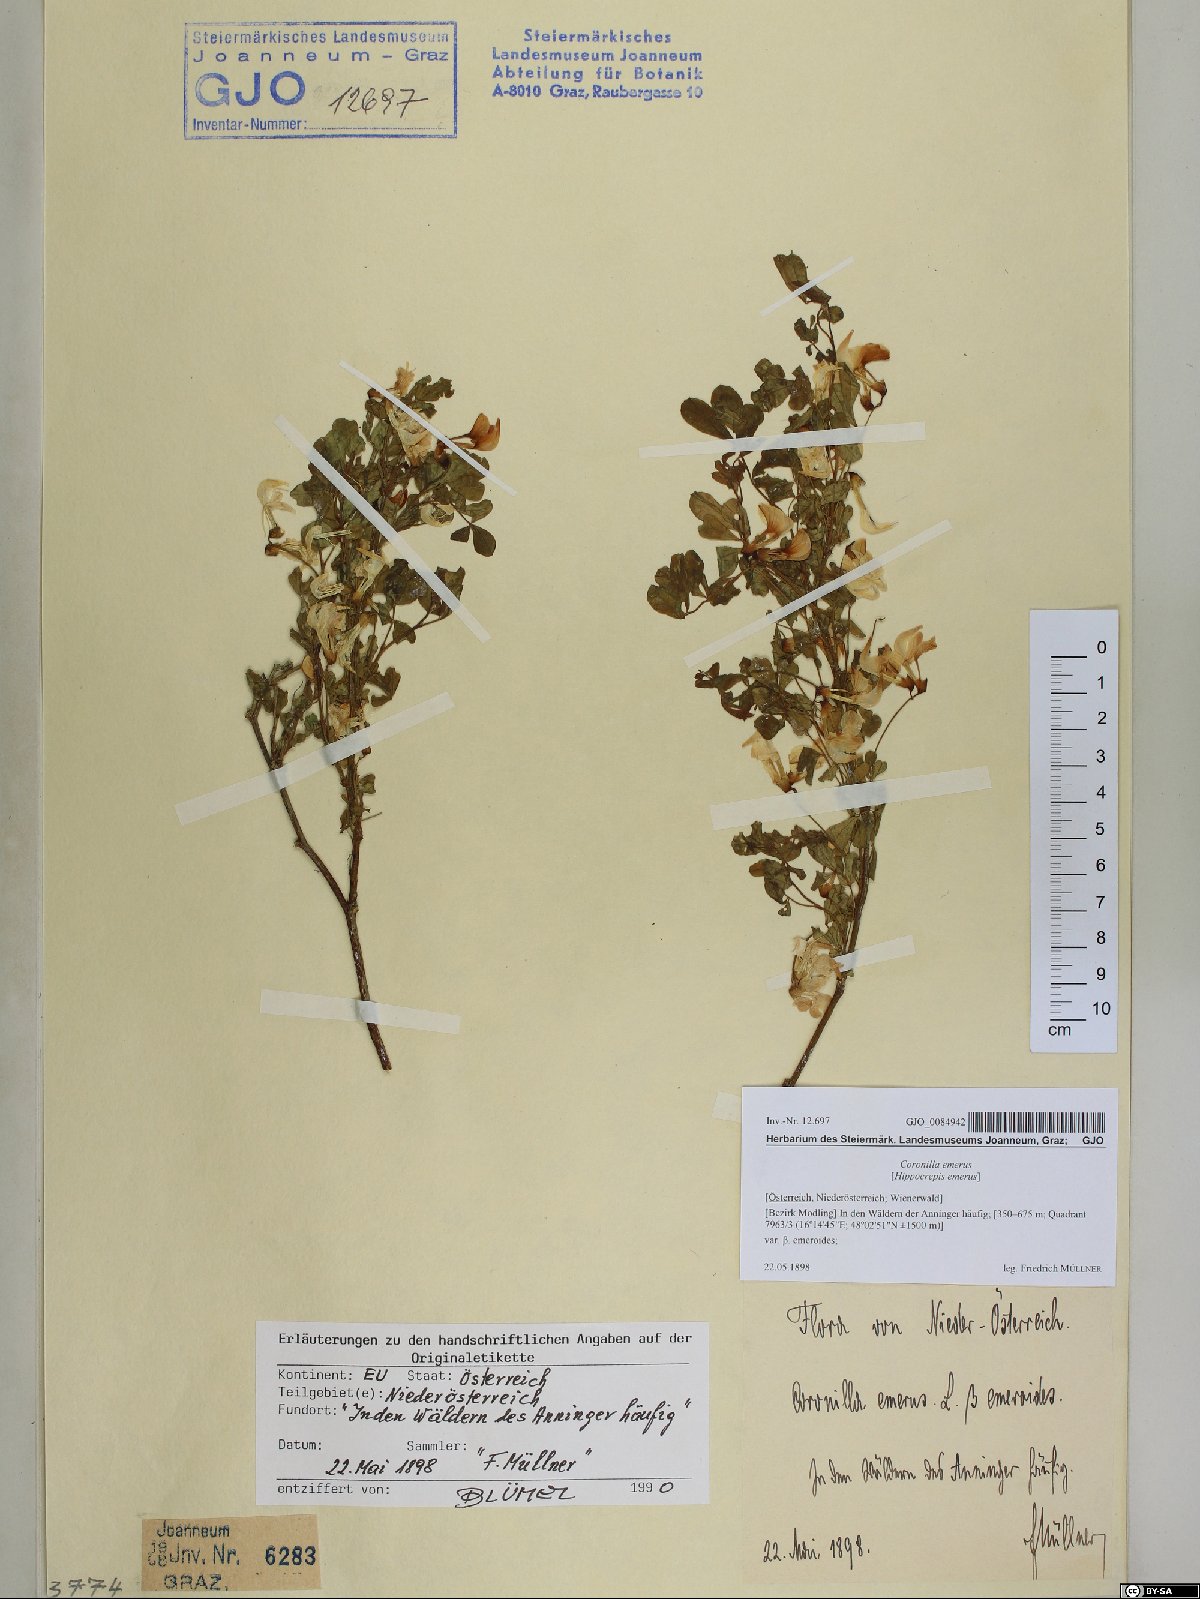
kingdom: Plantae
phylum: Tracheophyta
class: Magnoliopsida
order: Fabales
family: Fabaceae
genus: Hippocrepis
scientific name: Hippocrepis emerus
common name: Scorpion senna
